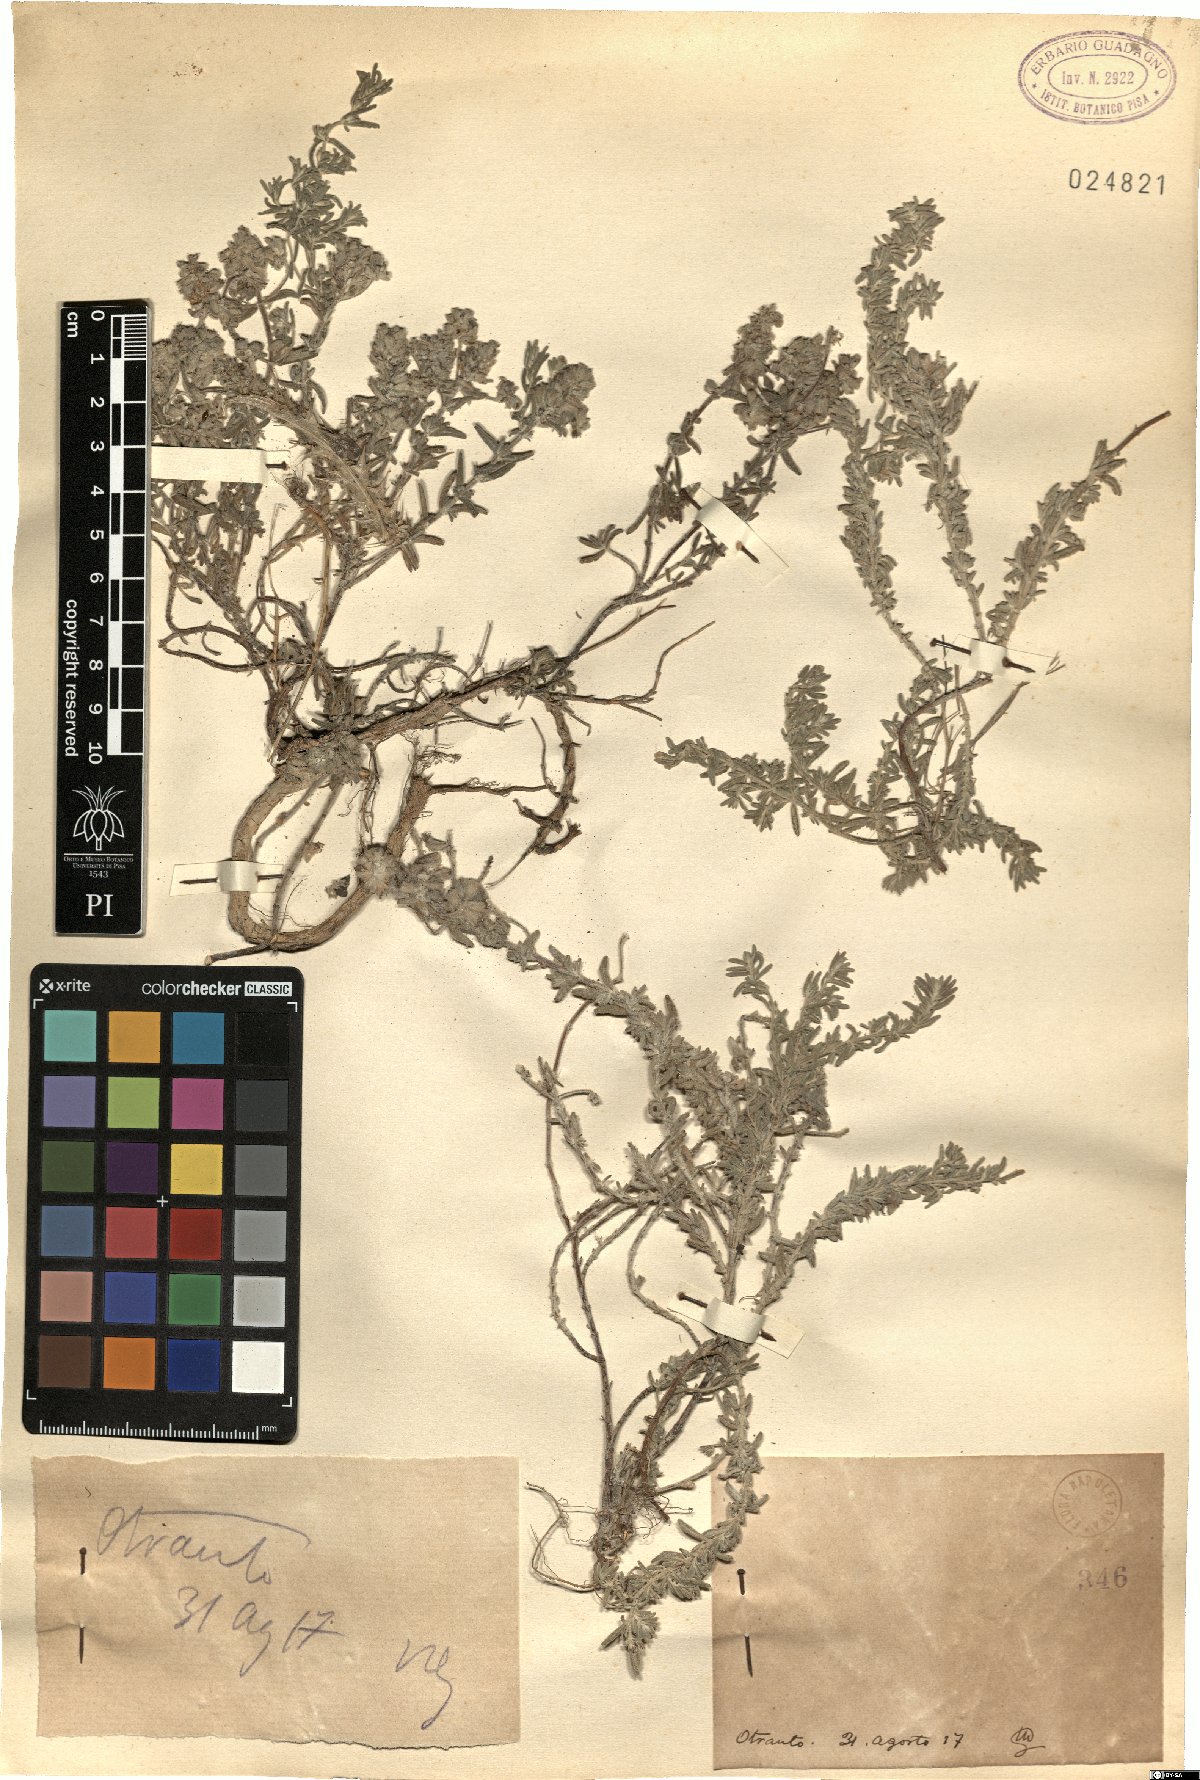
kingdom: Plantae
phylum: Tracheophyta
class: Magnoliopsida
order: Lamiales
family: Lamiaceae
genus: Teucrium
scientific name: Teucrium
